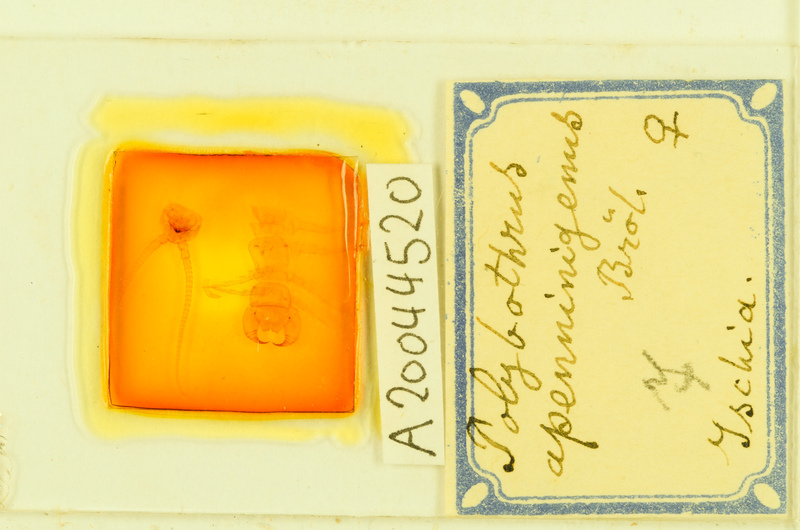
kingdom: Animalia
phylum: Arthropoda
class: Chilopoda
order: Lithobiomorpha
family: Lithobiidae
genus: Polybothrus
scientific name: Polybothrus
